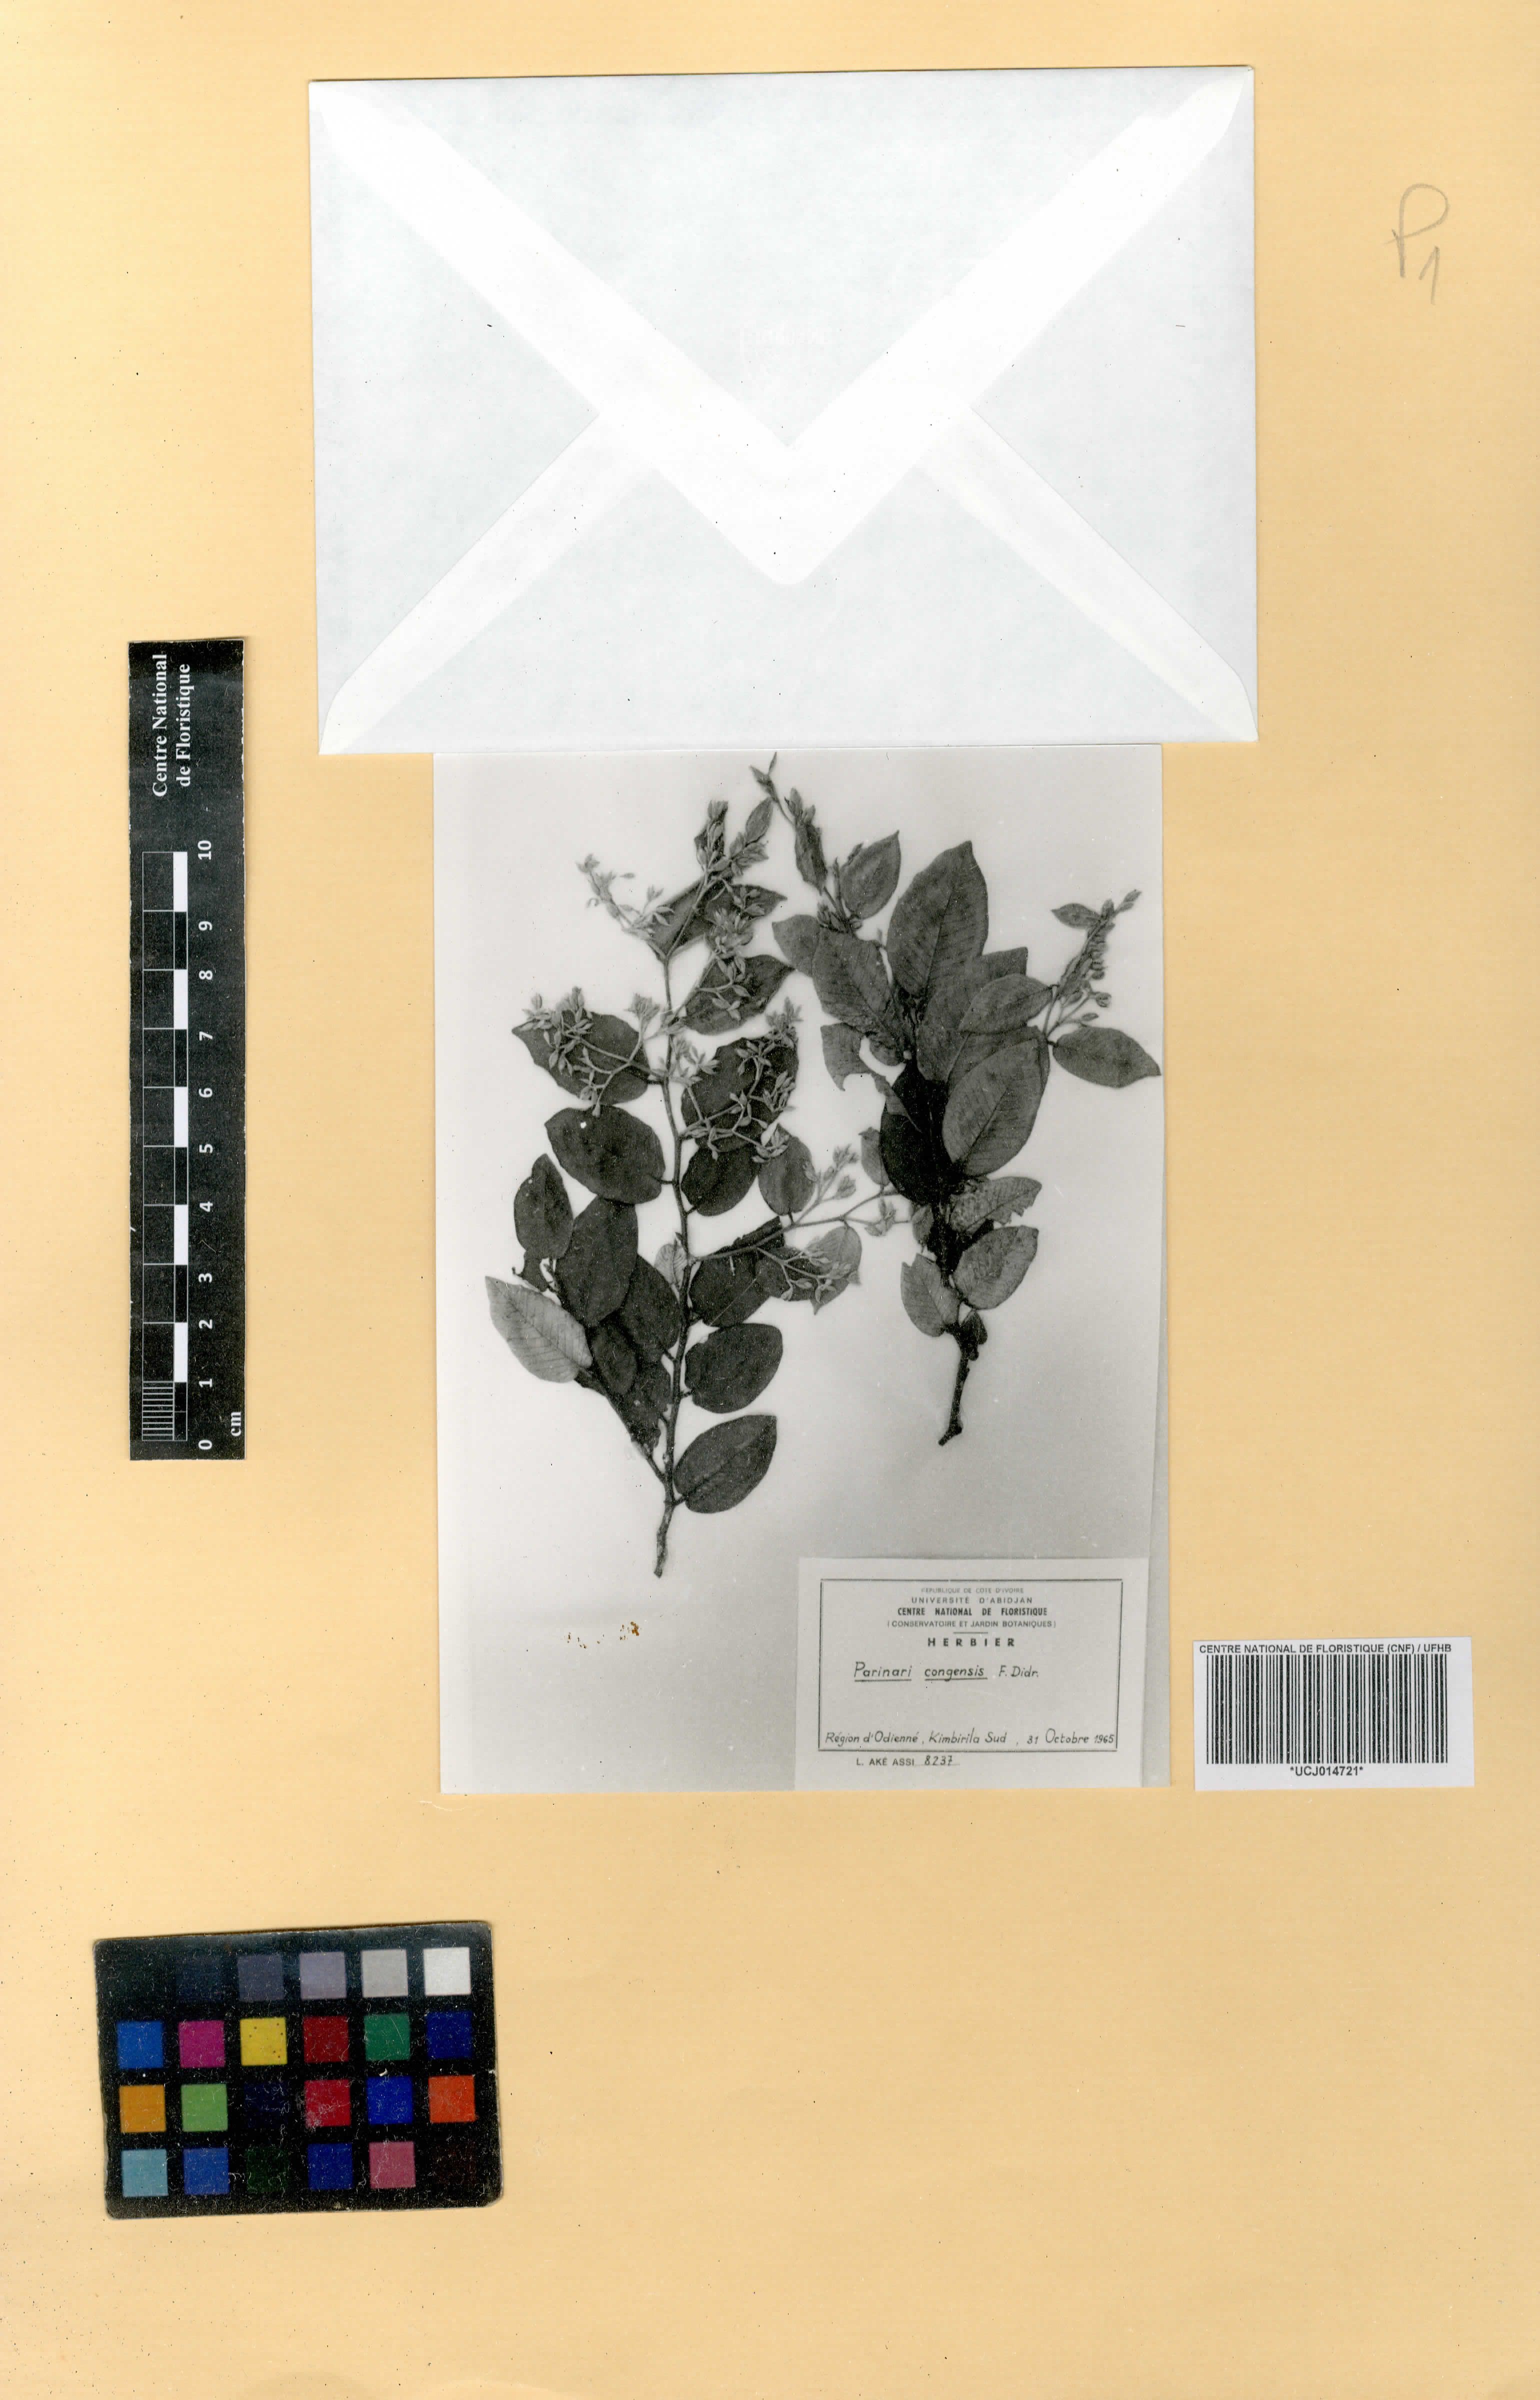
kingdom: Plantae
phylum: Tracheophyta
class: Magnoliopsida
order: Malpighiales
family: Chrysobalanaceae
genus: Parinari
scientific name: Parinari congensis
